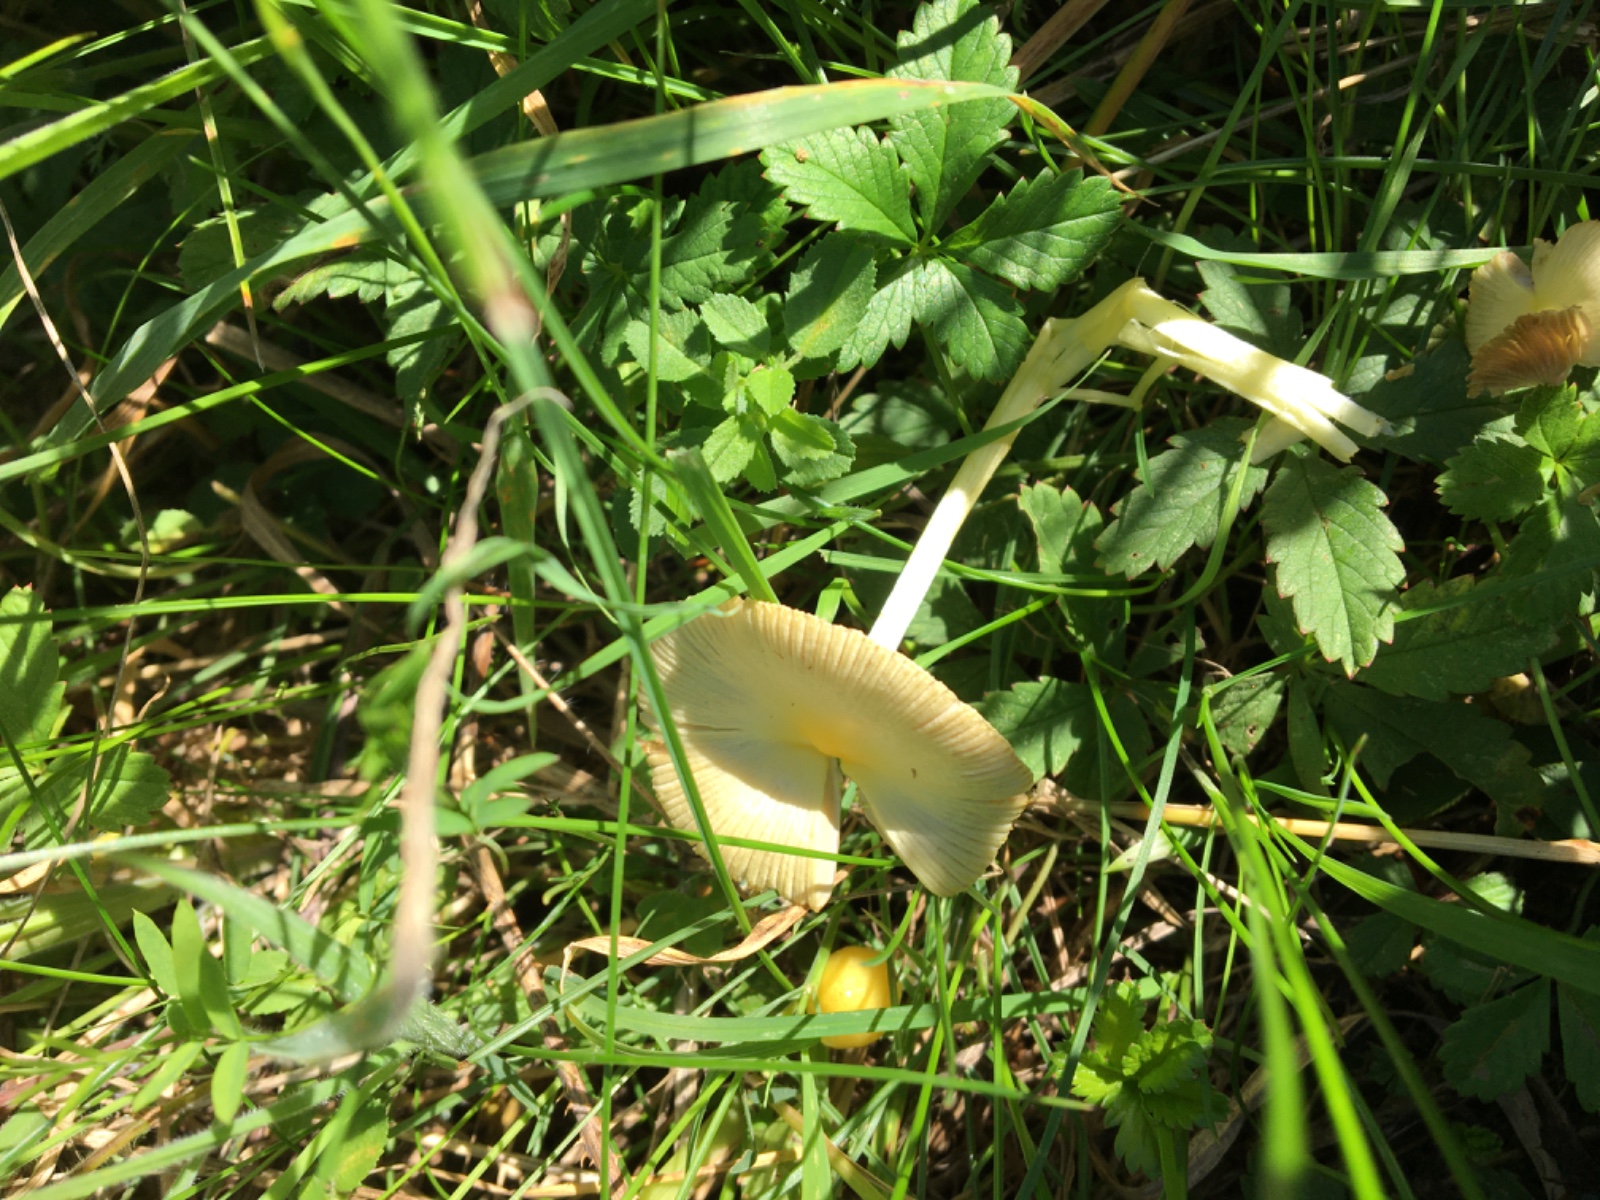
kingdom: Fungi
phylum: Basidiomycota
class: Agaricomycetes
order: Agaricales
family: Bolbitiaceae
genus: Bolbitius
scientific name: Bolbitius titubans
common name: almindelig gulhat
